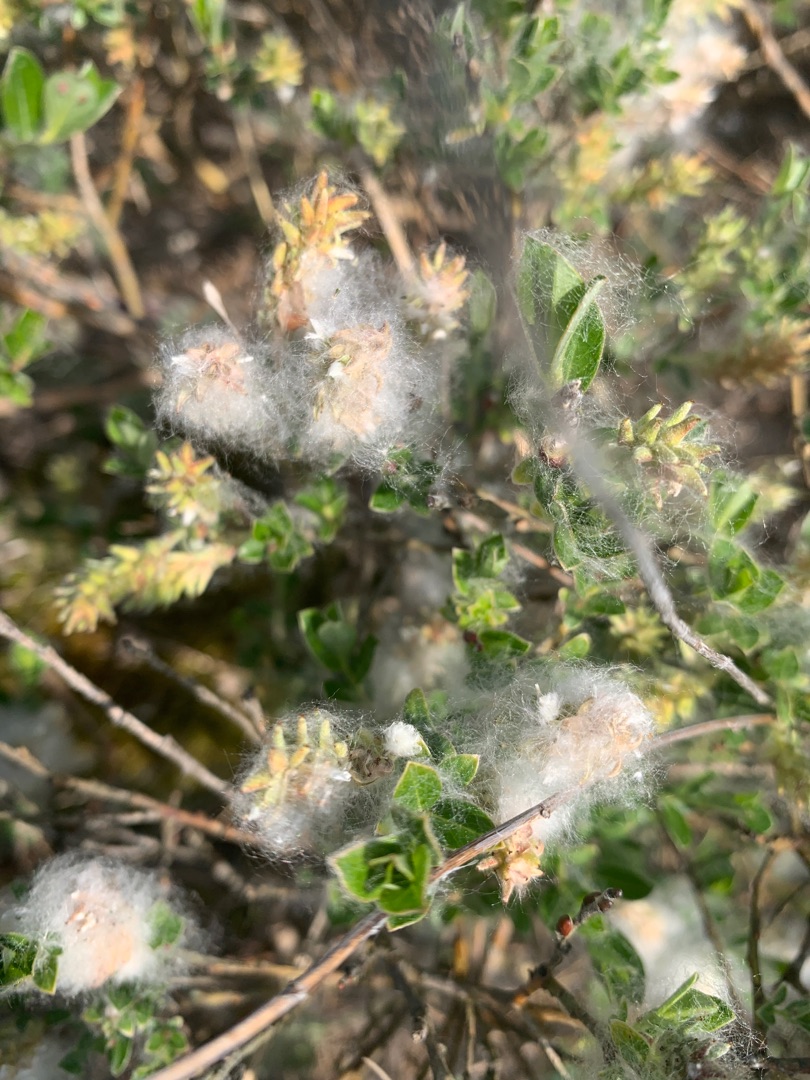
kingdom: Plantae
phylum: Tracheophyta
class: Magnoliopsida
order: Malpighiales
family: Salicaceae
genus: Salix
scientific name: Salix repens
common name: Krybende pil
